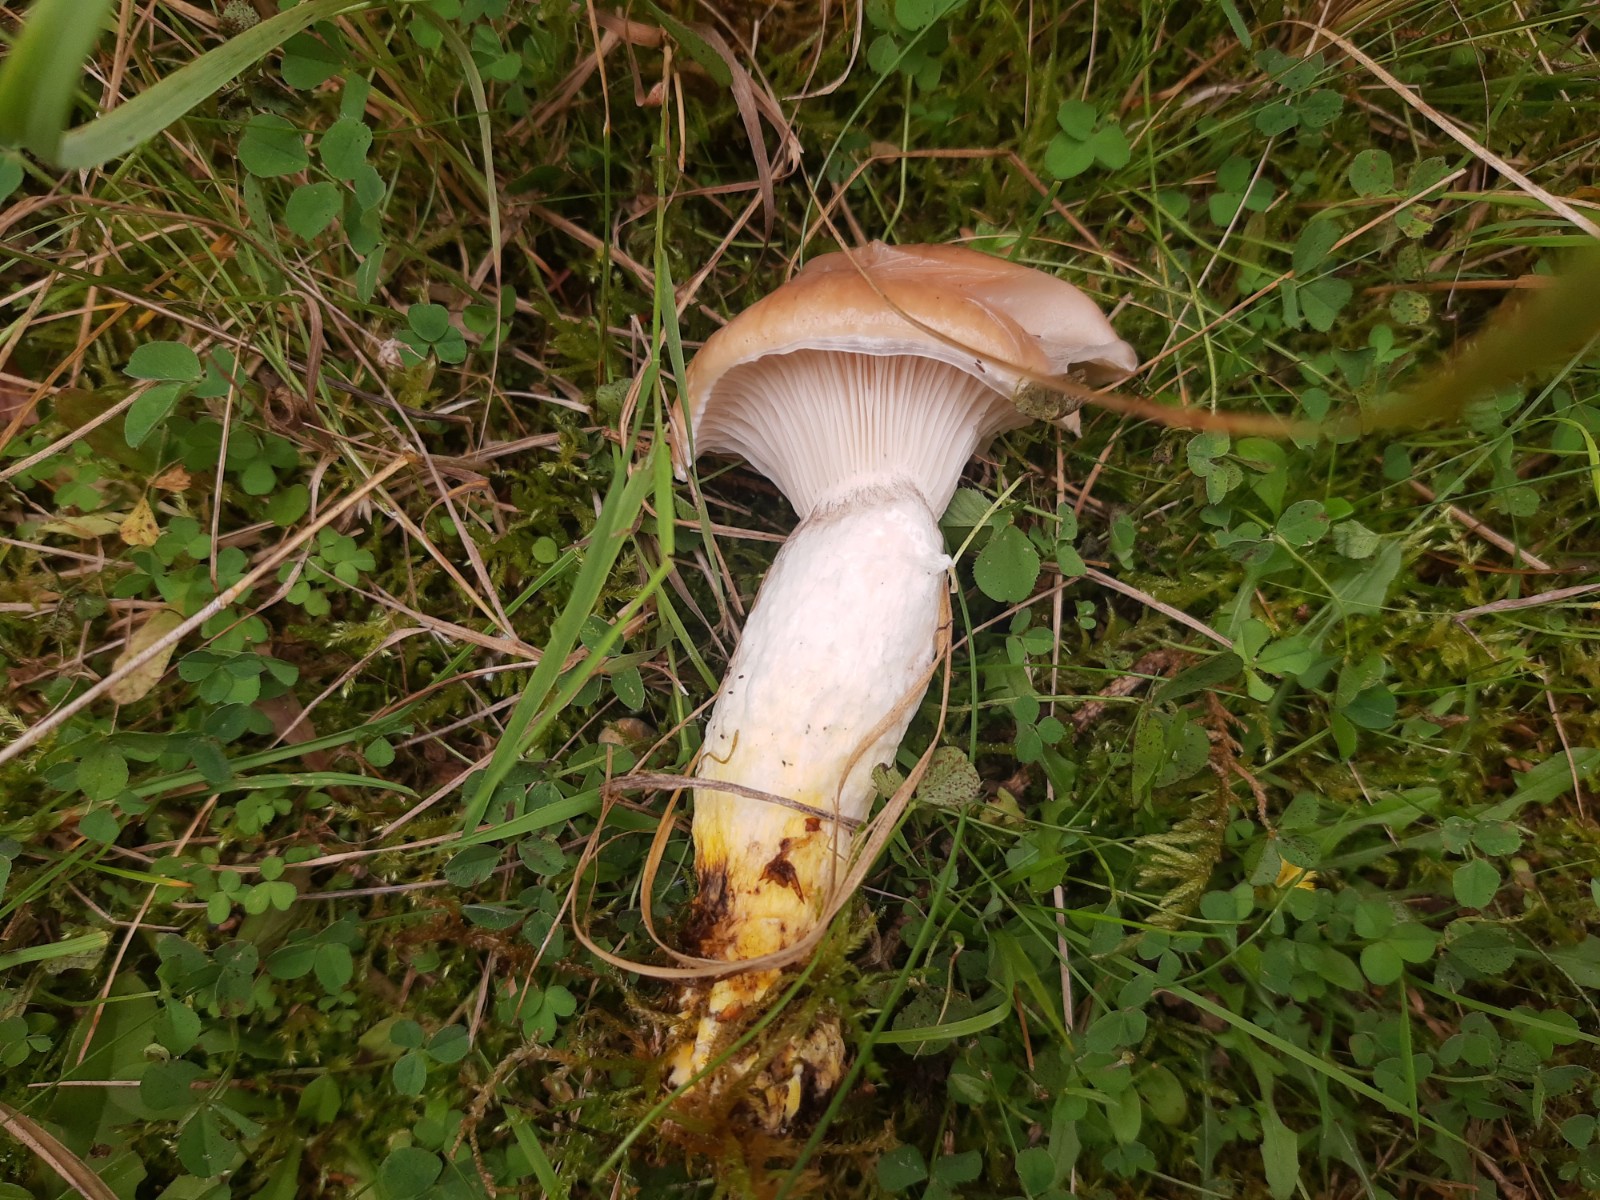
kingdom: Fungi
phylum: Basidiomycota
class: Agaricomycetes
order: Boletales
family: Gomphidiaceae
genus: Gomphidius
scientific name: Gomphidius glutinosus
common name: grå slimslør
